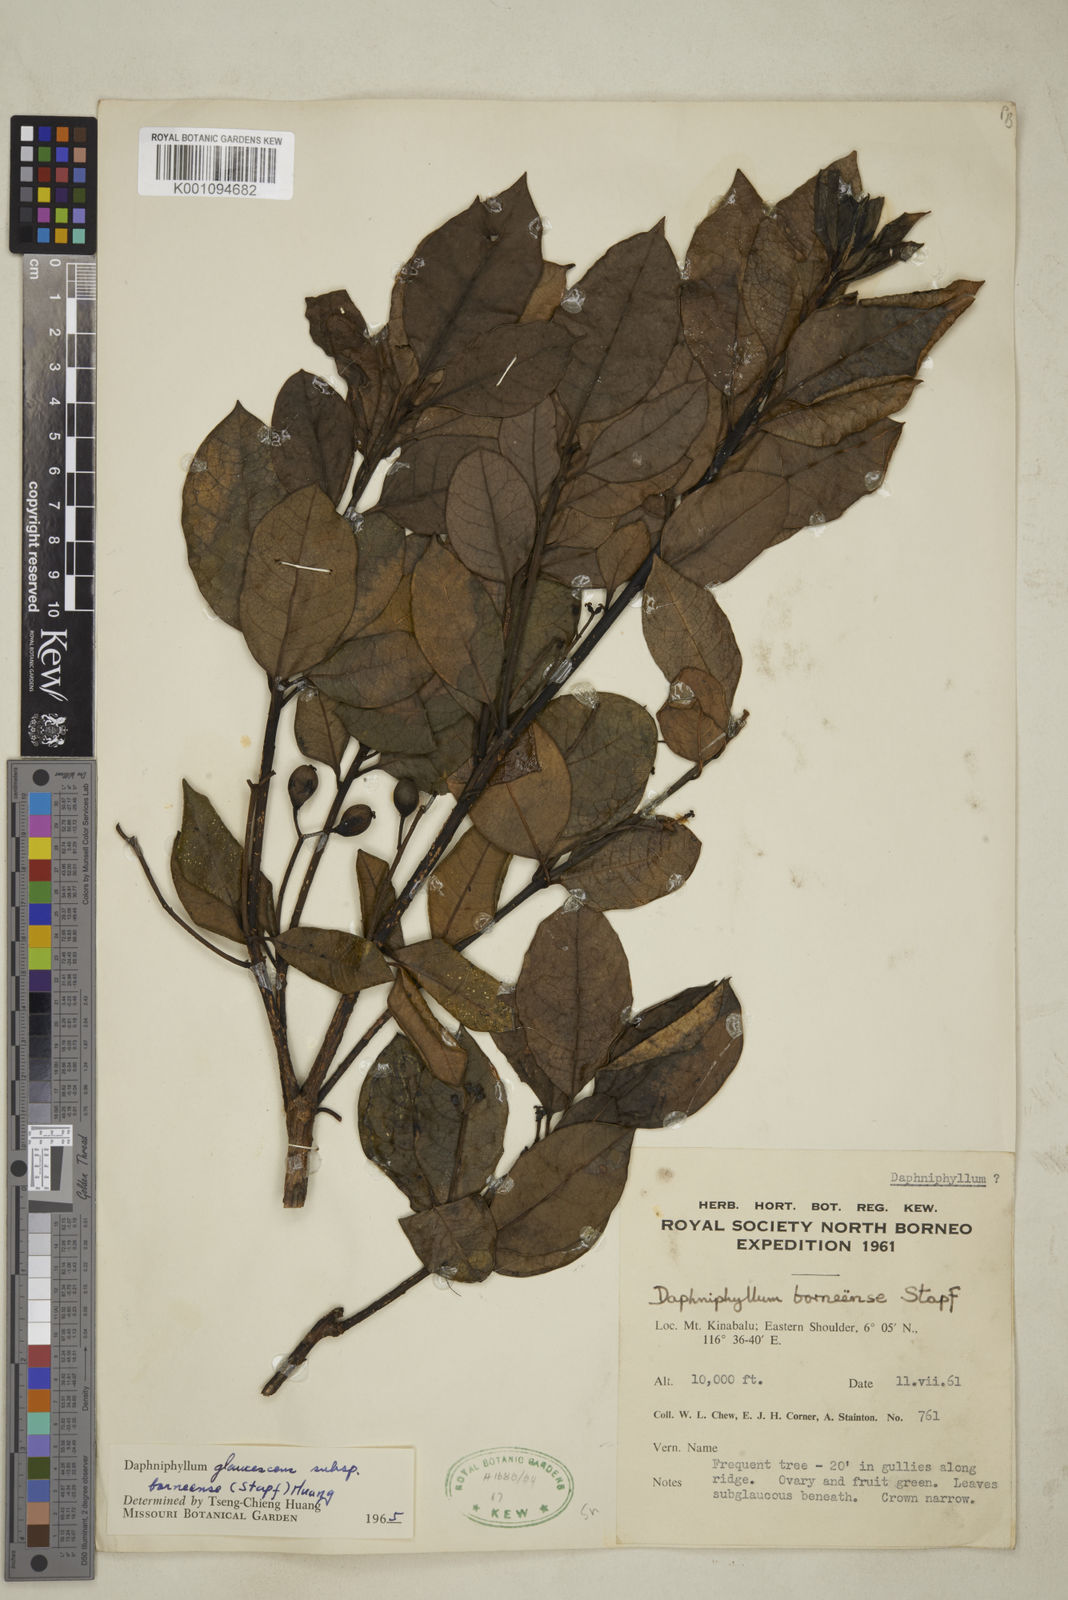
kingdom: Plantae
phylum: Tracheophyta
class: Magnoliopsida
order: Saxifragales
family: Daphniphyllaceae
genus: Daphniphyllum
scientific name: Daphniphyllum borneense
